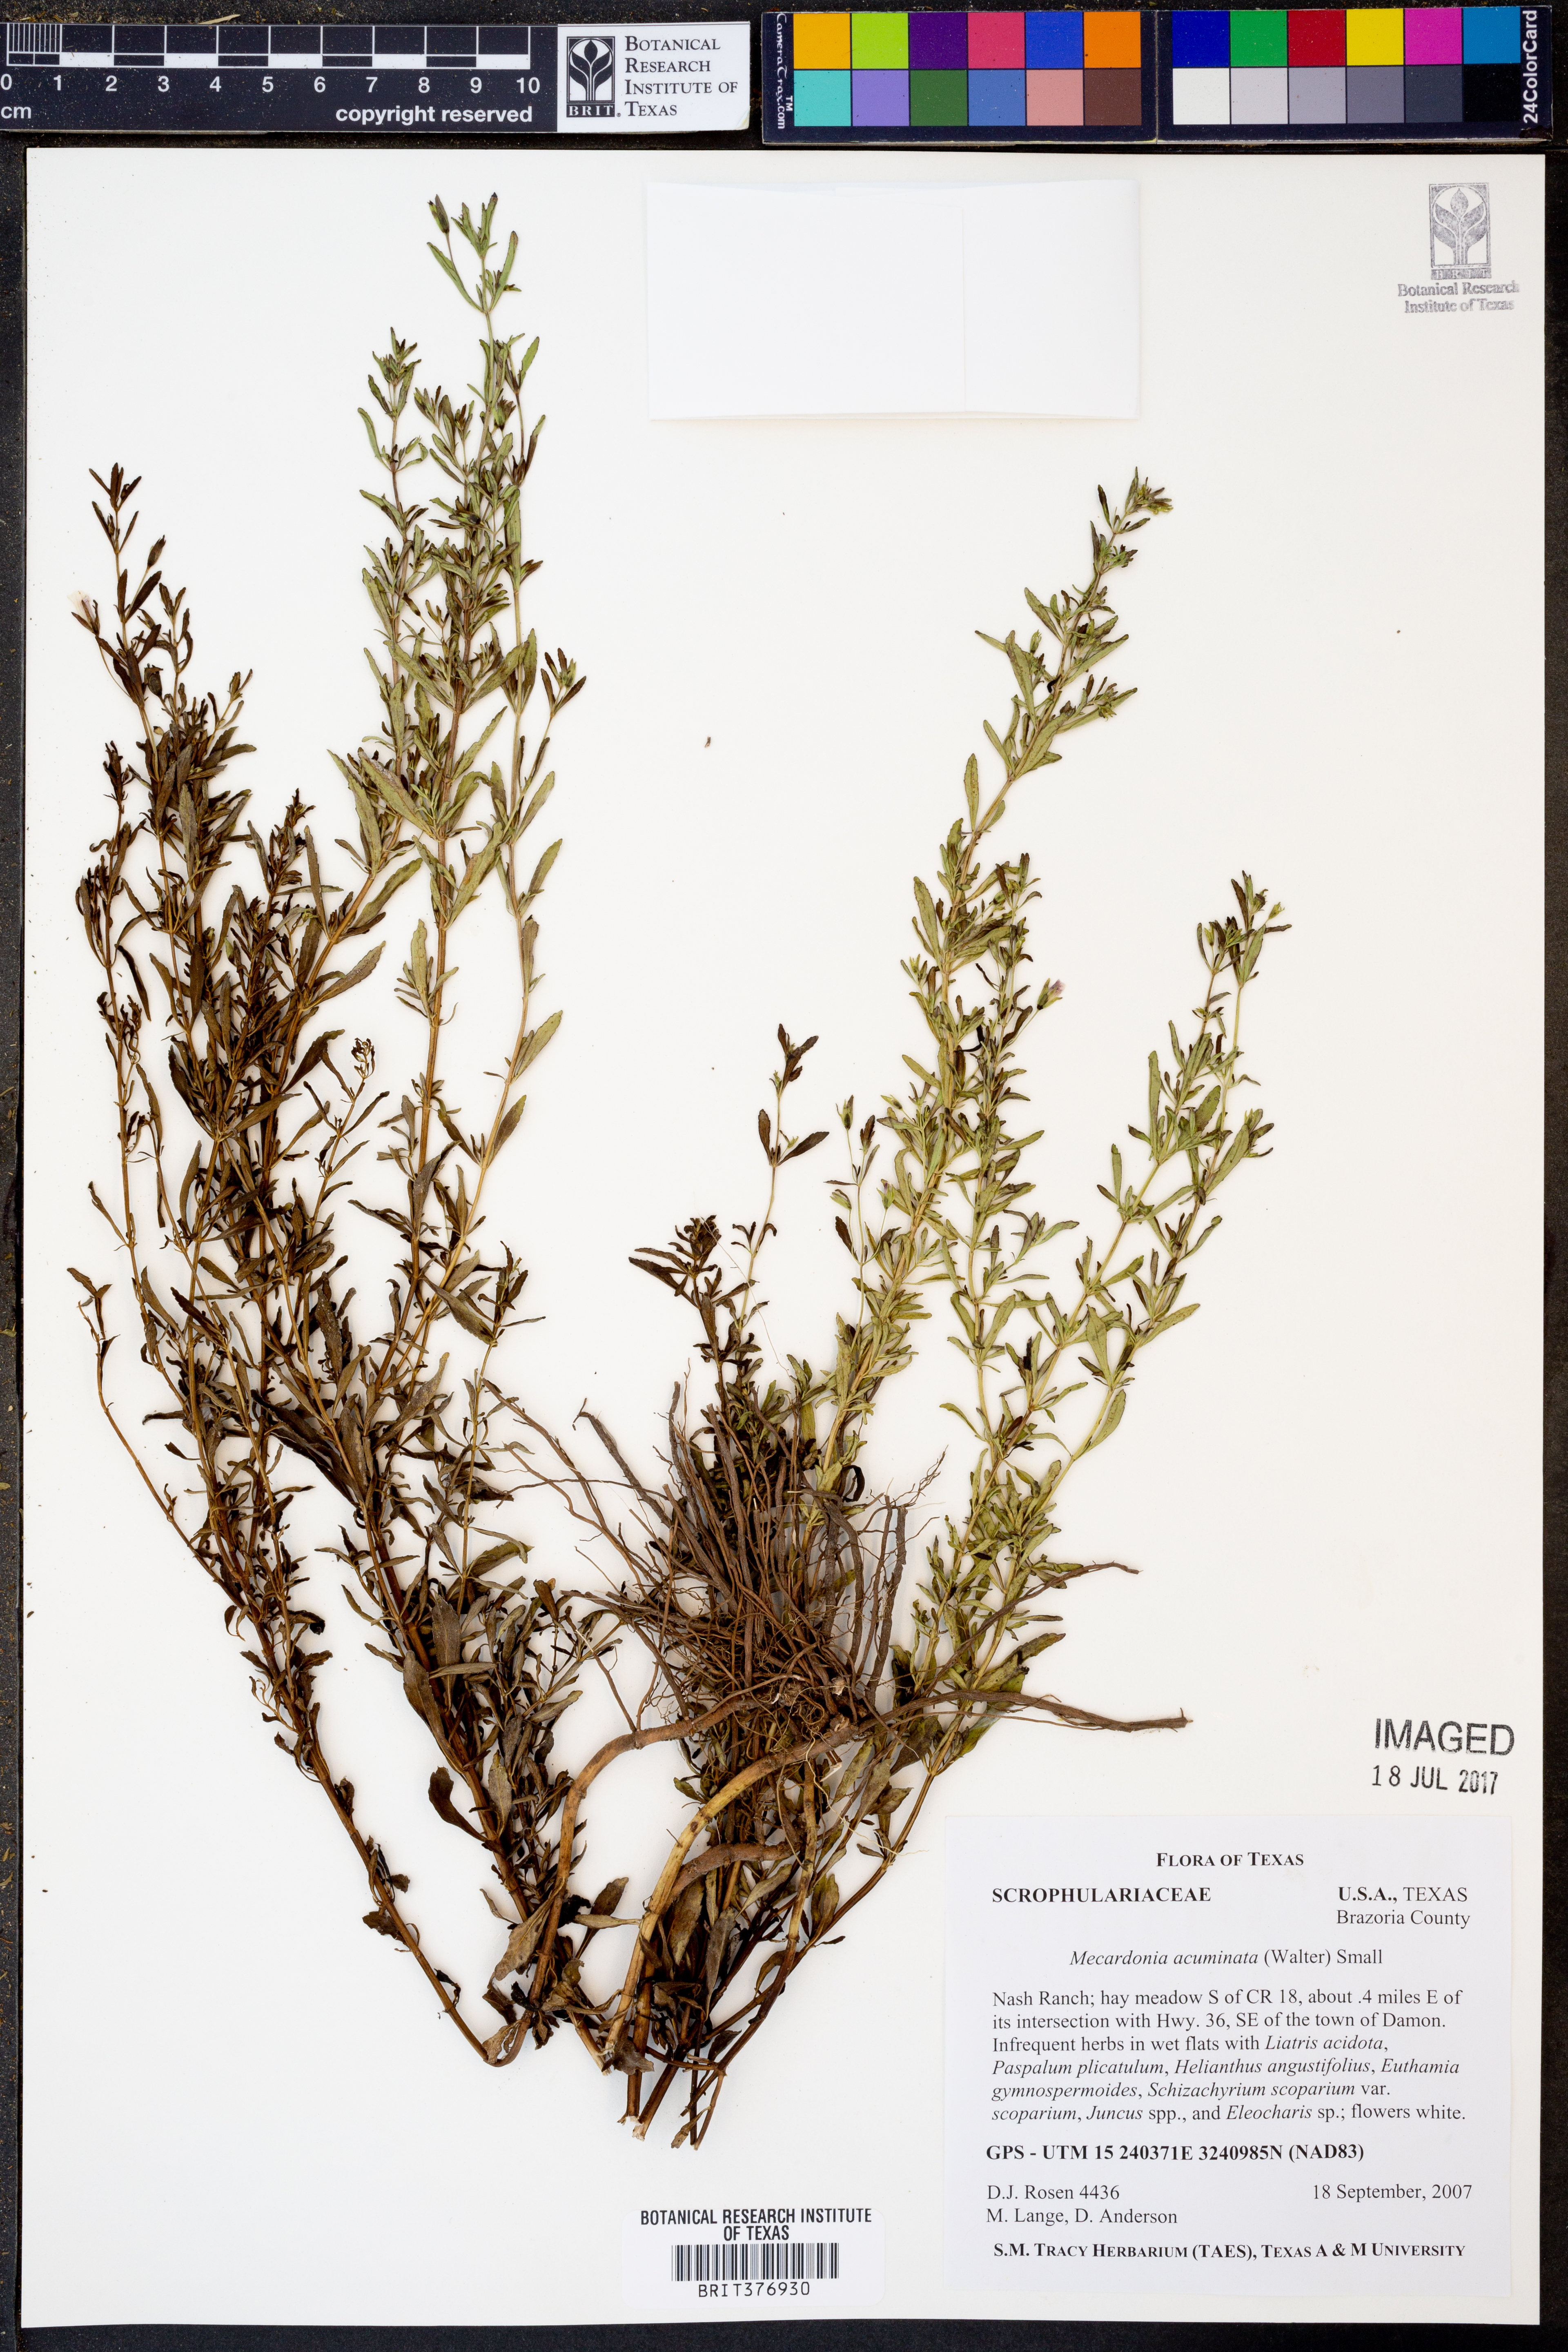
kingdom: Plantae
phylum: Tracheophyta
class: Magnoliopsida
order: Lamiales
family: Plantaginaceae
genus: Mecardonia
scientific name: Mecardonia acuminata
